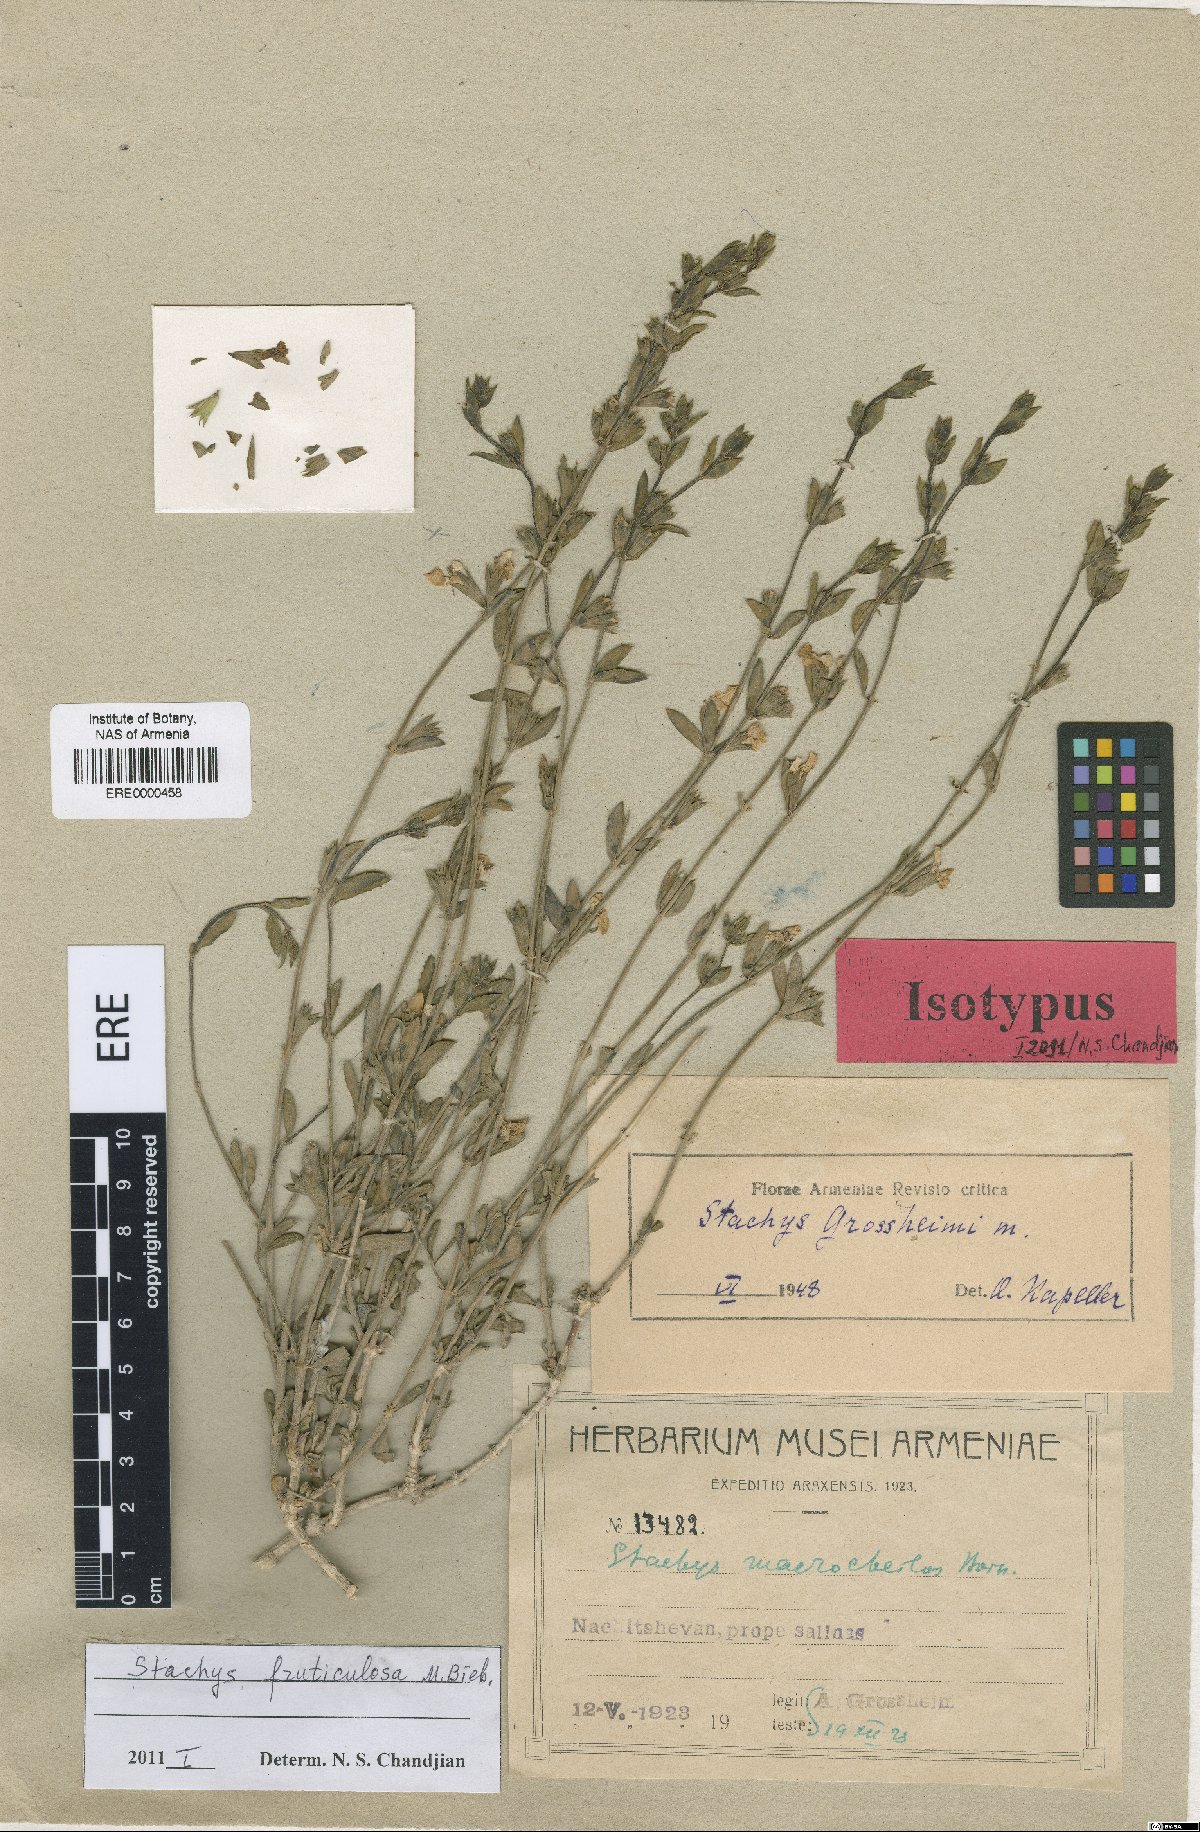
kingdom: Plantae
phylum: Tracheophyta
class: Magnoliopsida
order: Lamiales
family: Lamiaceae
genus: Stachys
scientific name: Stachys fruticulosa
